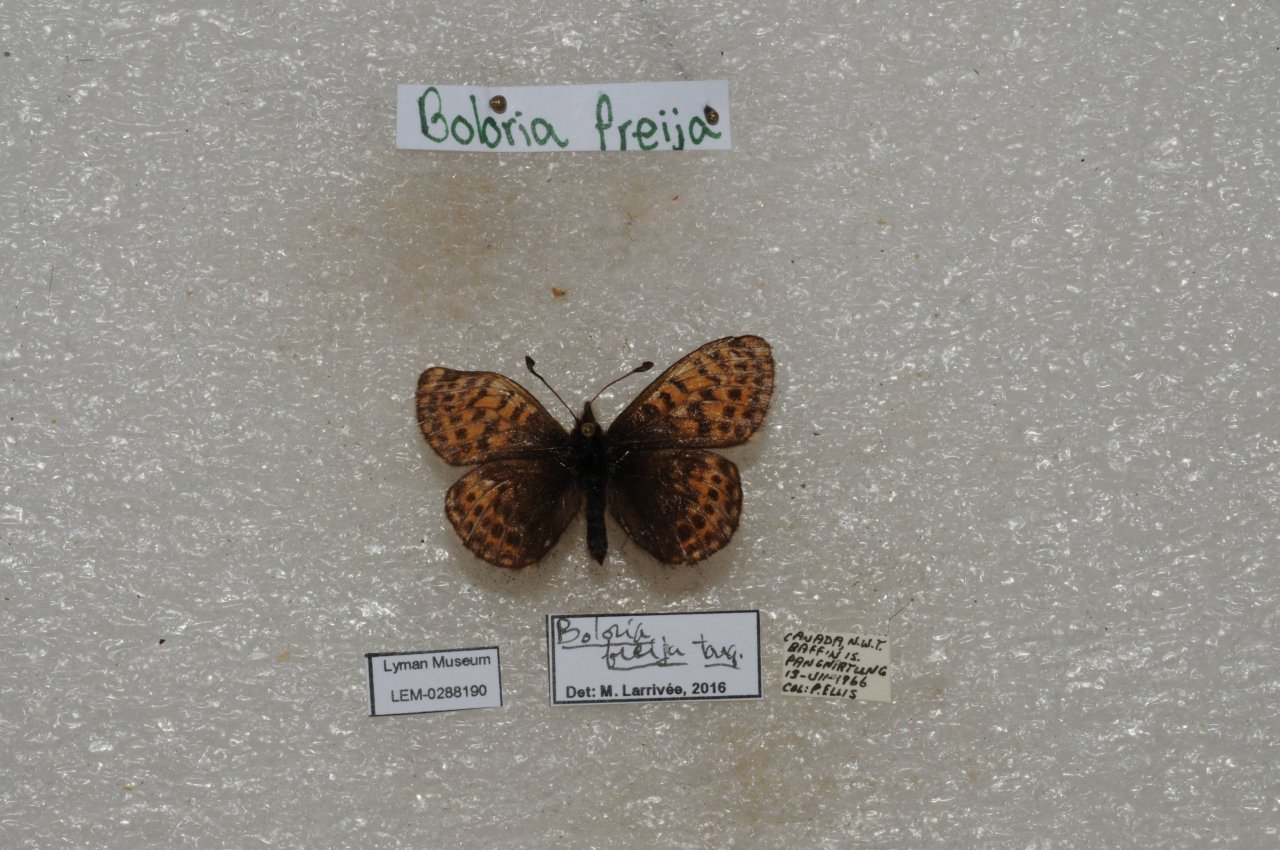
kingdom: Animalia
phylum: Arthropoda
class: Insecta
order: Lepidoptera
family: Nymphalidae
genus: Boloria
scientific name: Boloria freija
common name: Freija Fritillary
